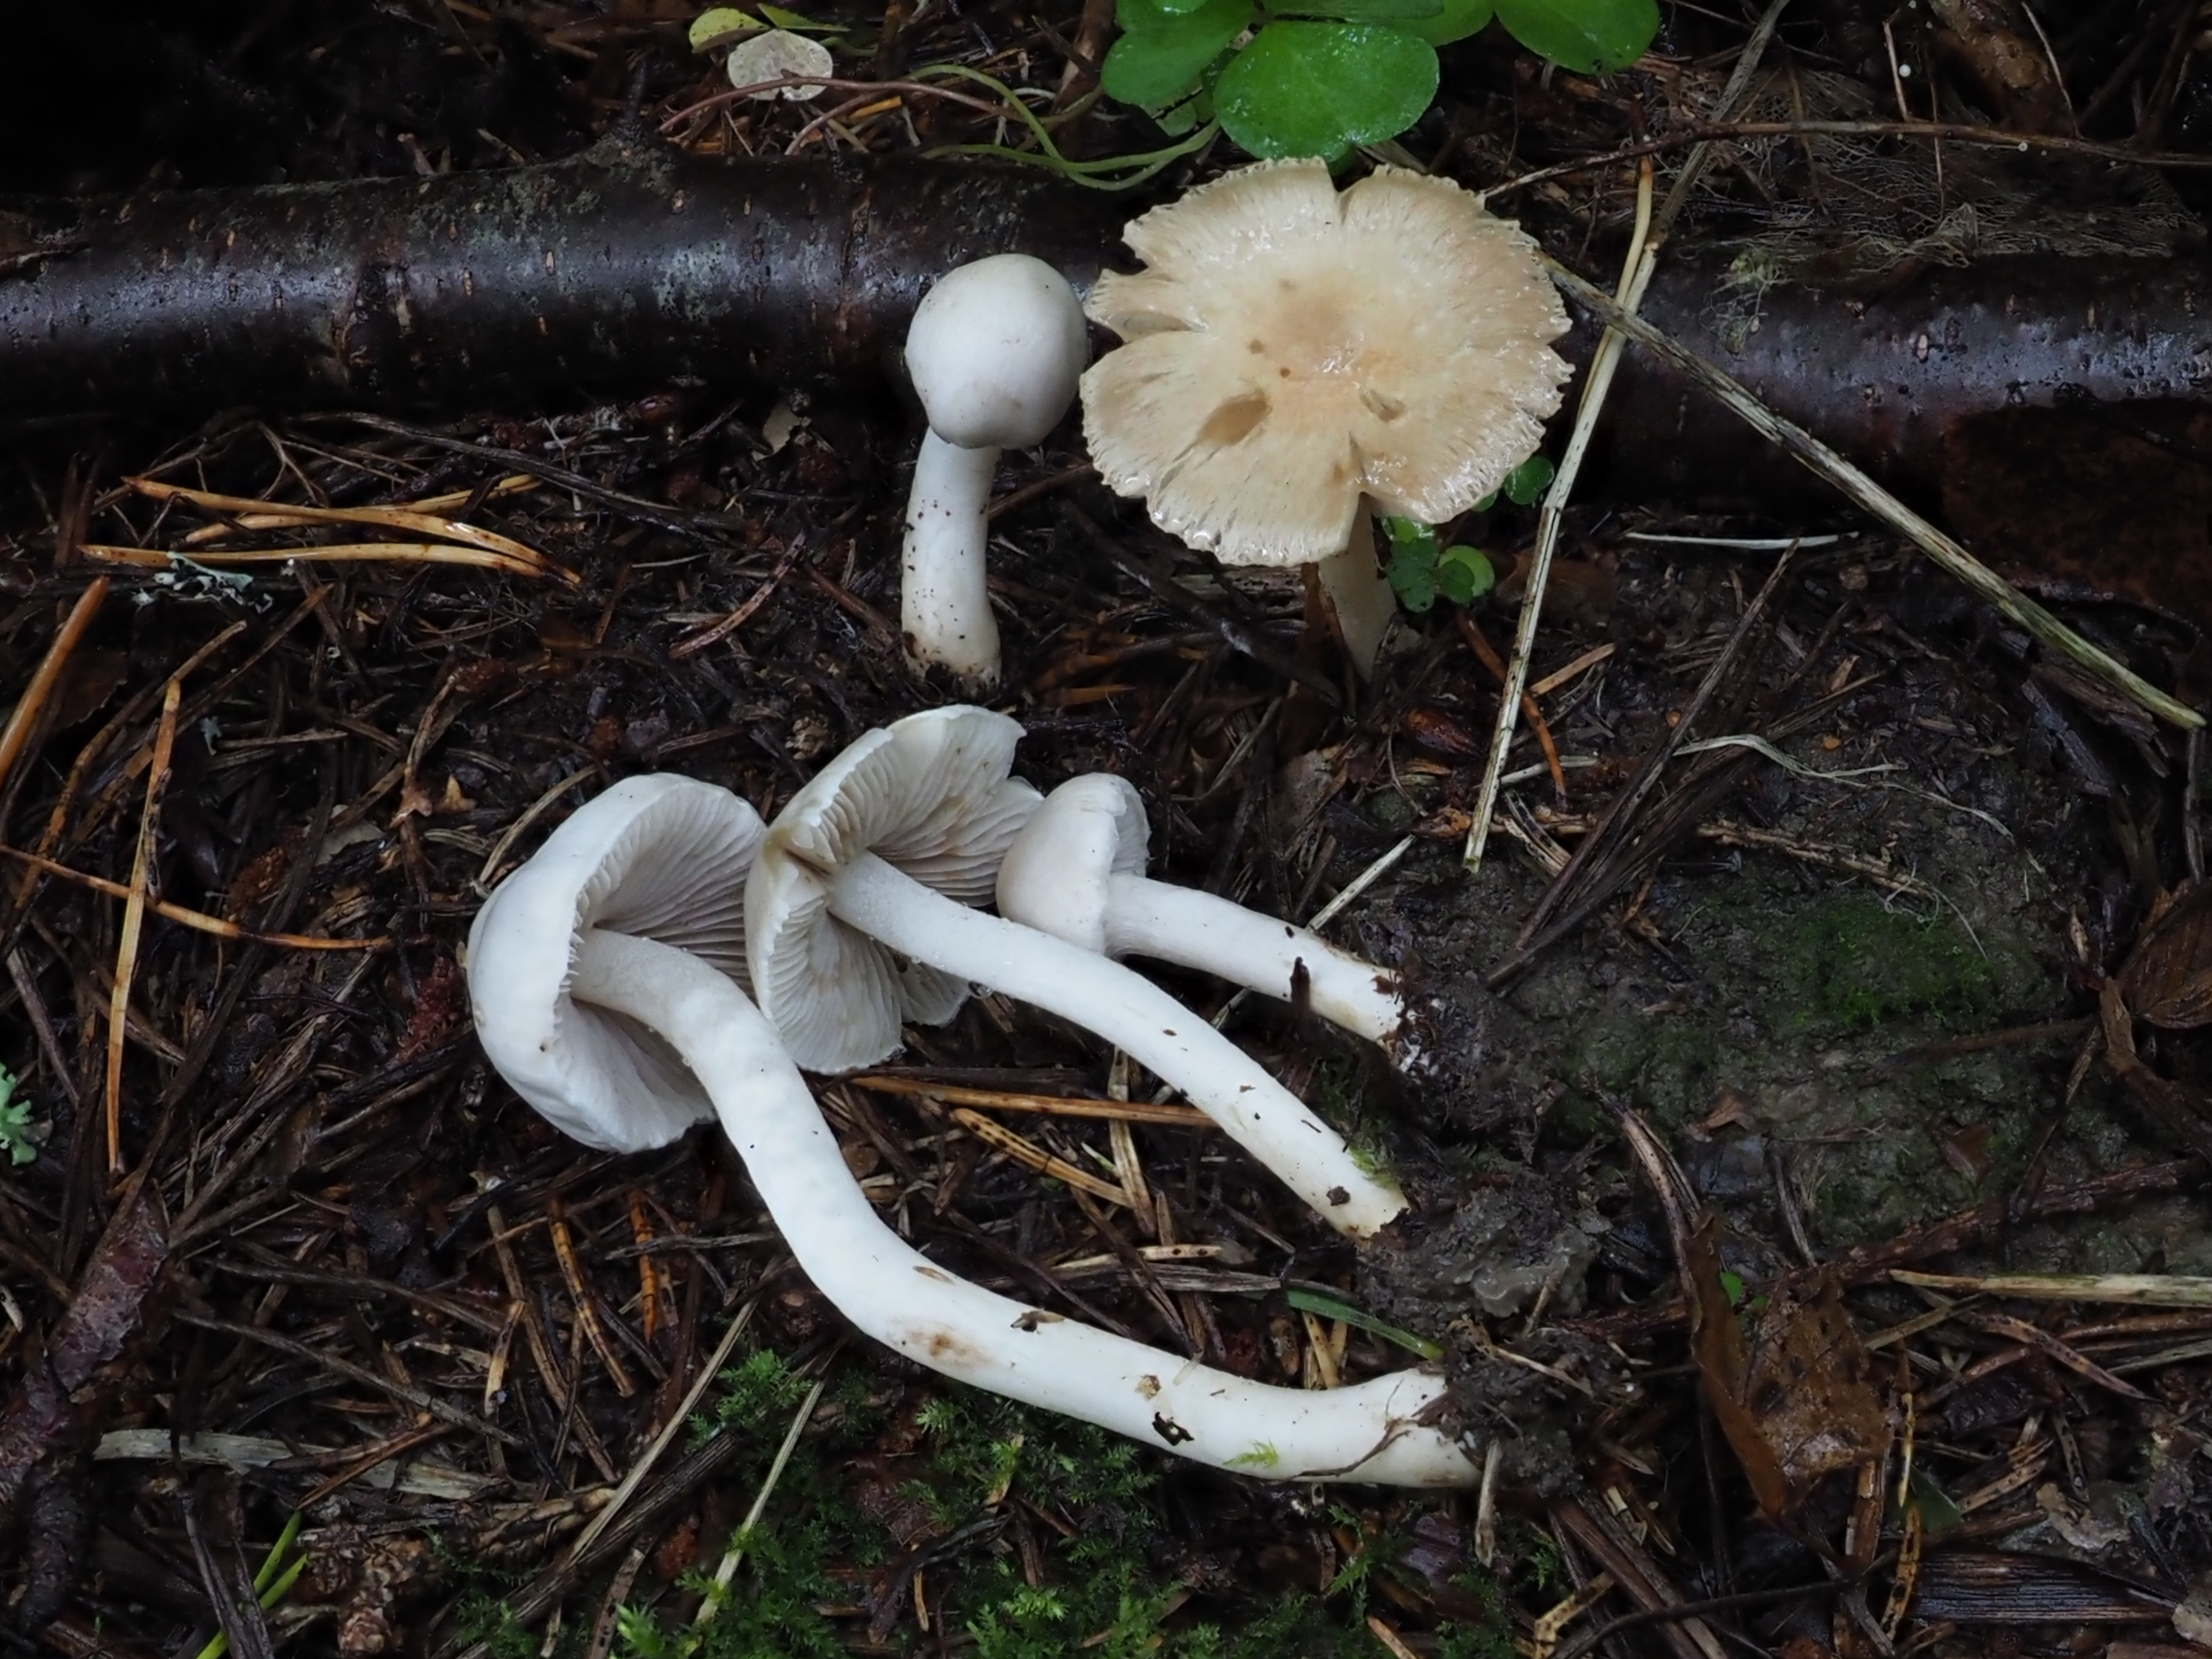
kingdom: Fungi
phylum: Basidiomycota
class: Agaricomycetes
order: Agaricales
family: Inocybaceae
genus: Inocybe
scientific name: Inocybe geophylla
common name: White fibrecap
